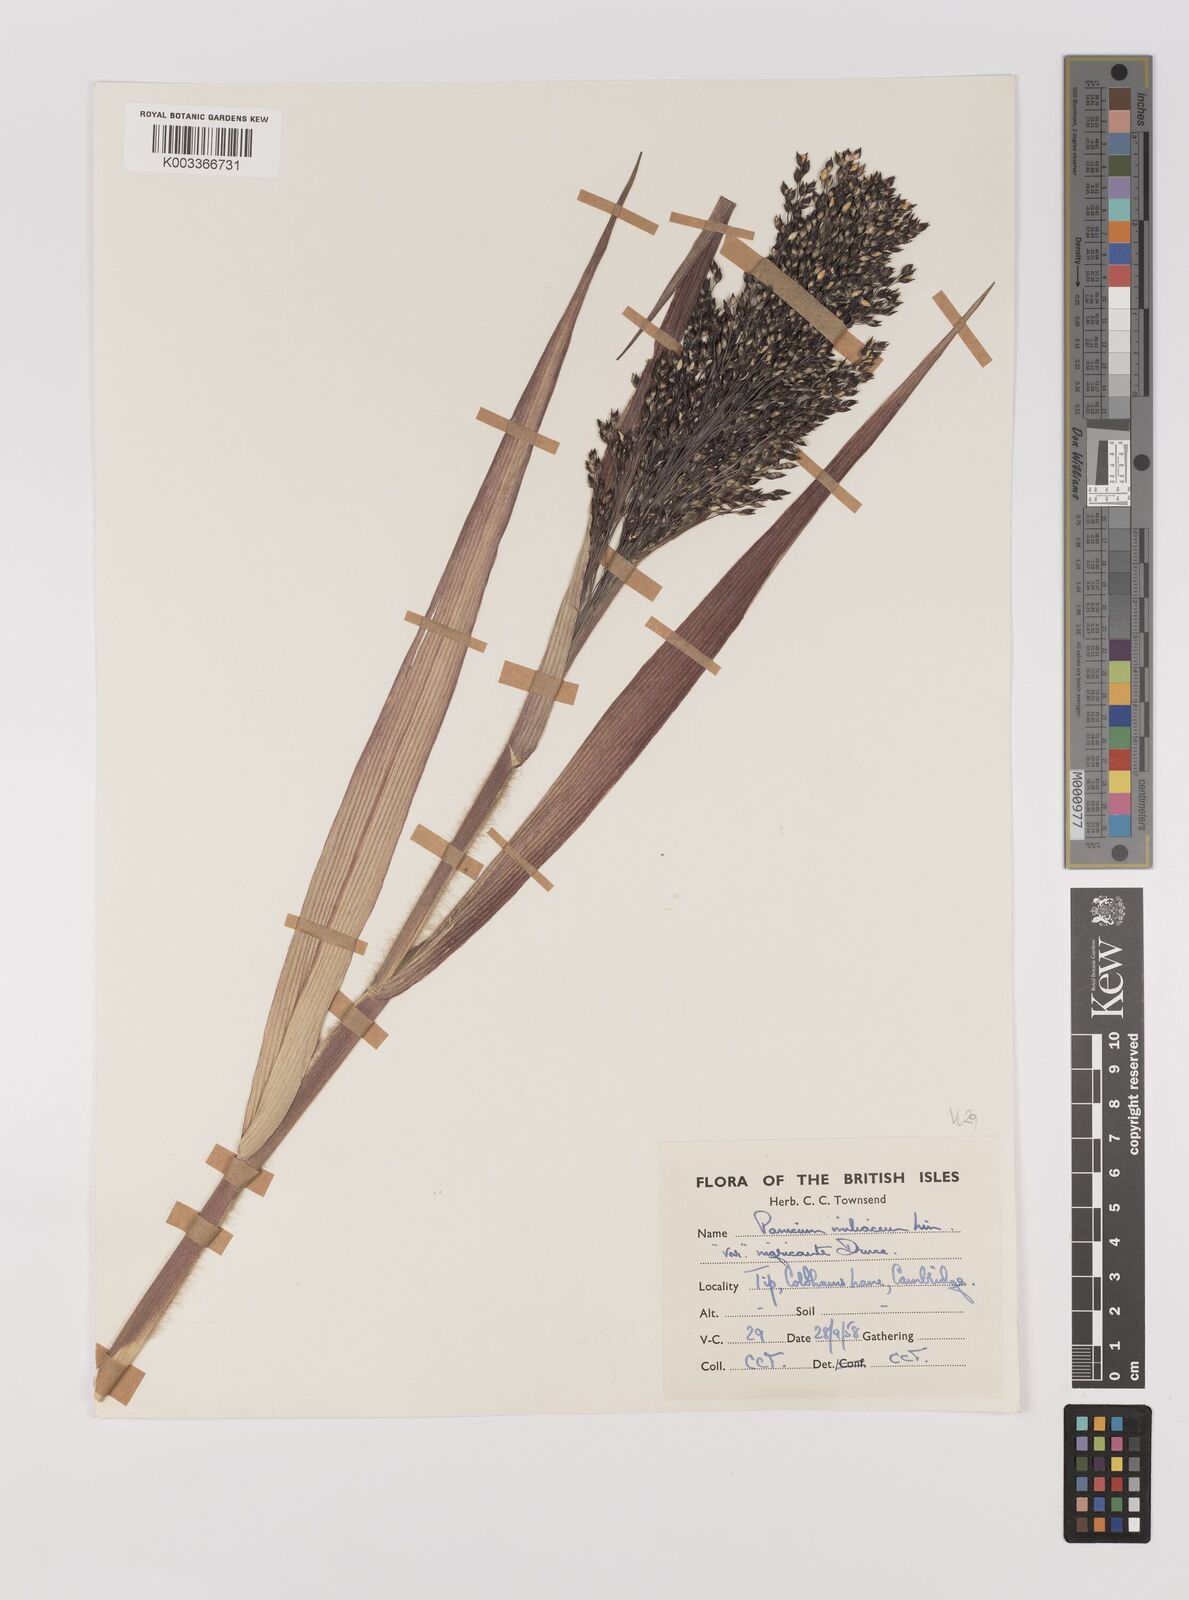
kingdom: Plantae
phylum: Tracheophyta
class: Liliopsida
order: Poales
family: Poaceae
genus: Panicum
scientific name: Panicum miliaceum
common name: Common millet
